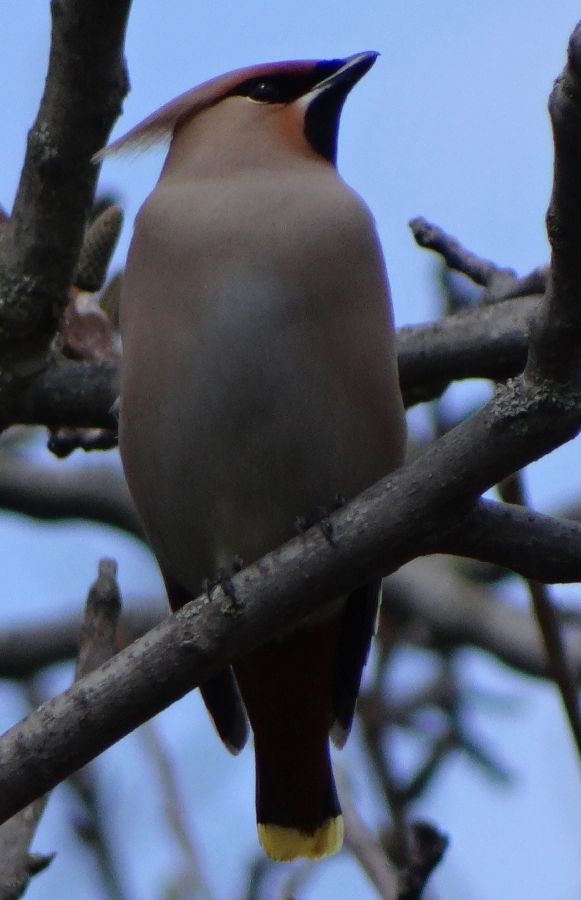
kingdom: Animalia
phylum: Chordata
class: Aves
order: Passeriformes
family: Bombycillidae
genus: Bombycilla
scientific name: Bombycilla garrulus
